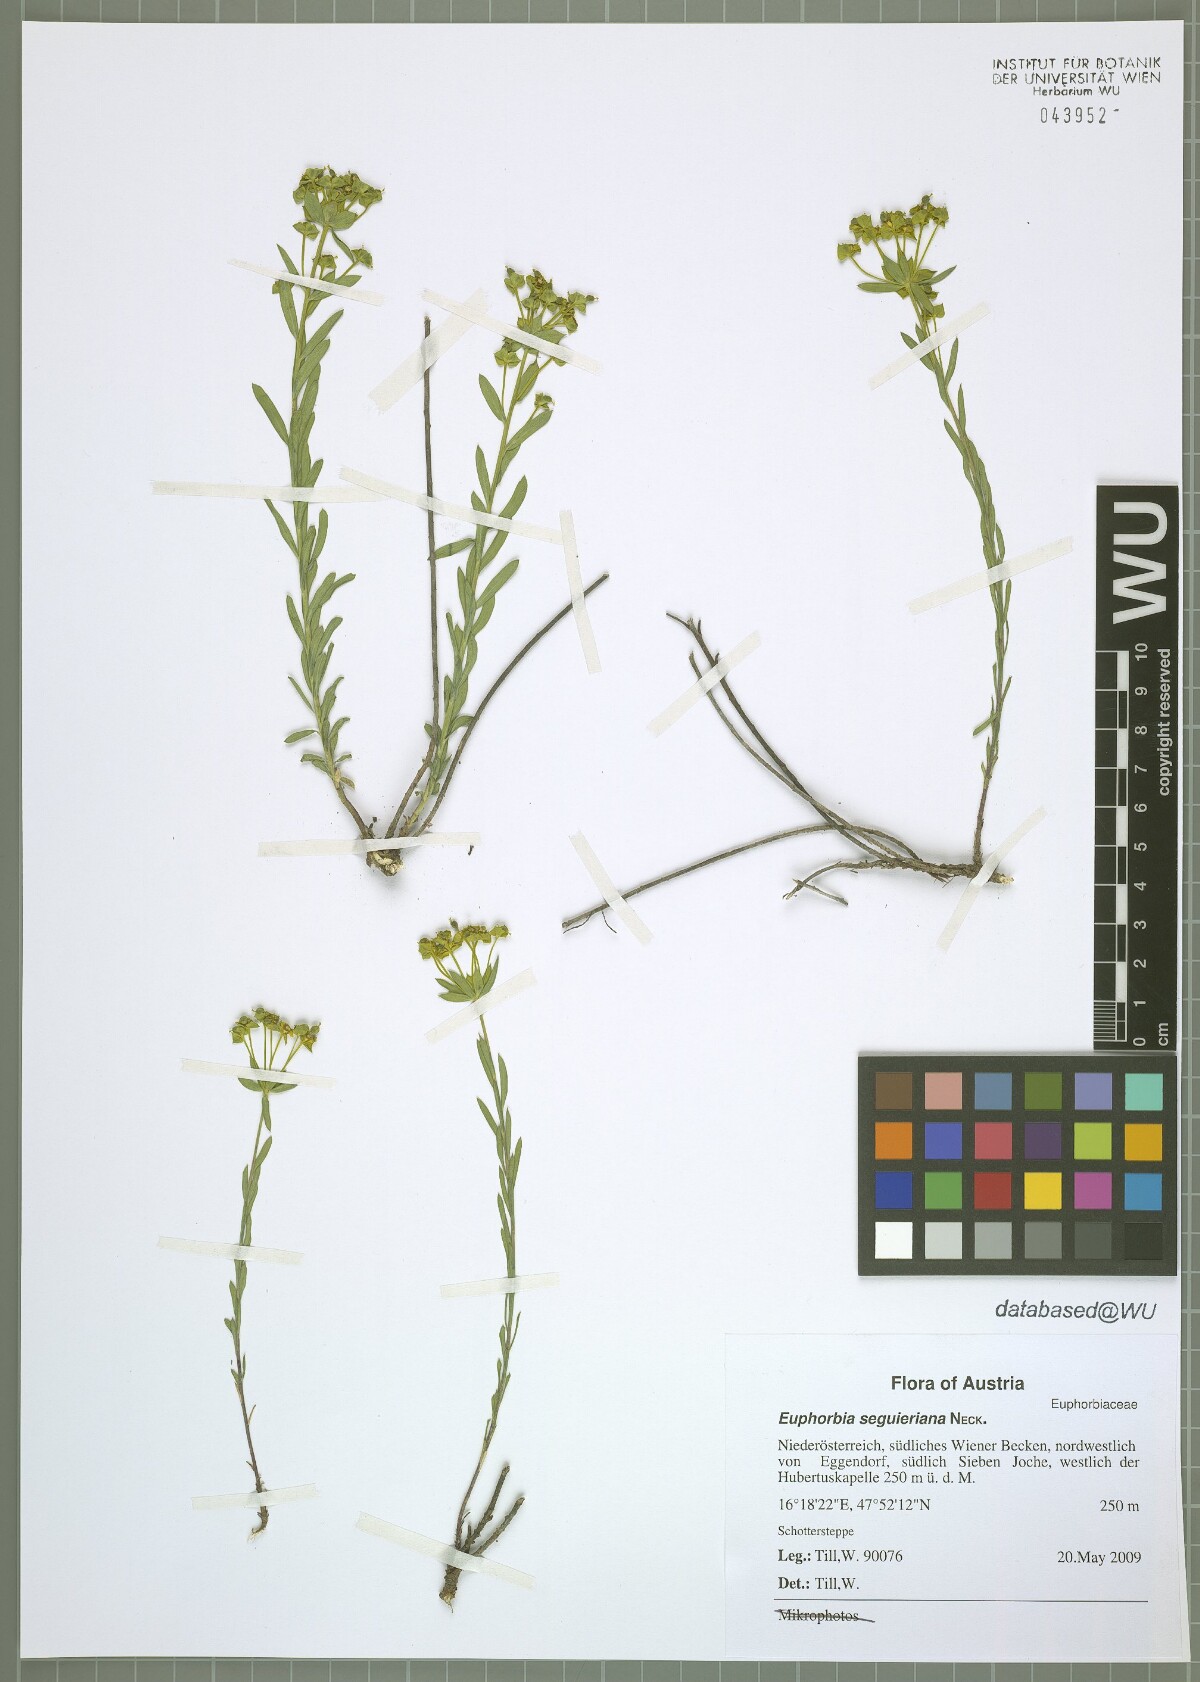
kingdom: Plantae
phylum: Tracheophyta
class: Magnoliopsida
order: Malpighiales
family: Euphorbiaceae
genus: Euphorbia
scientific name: Euphorbia seguieriana
